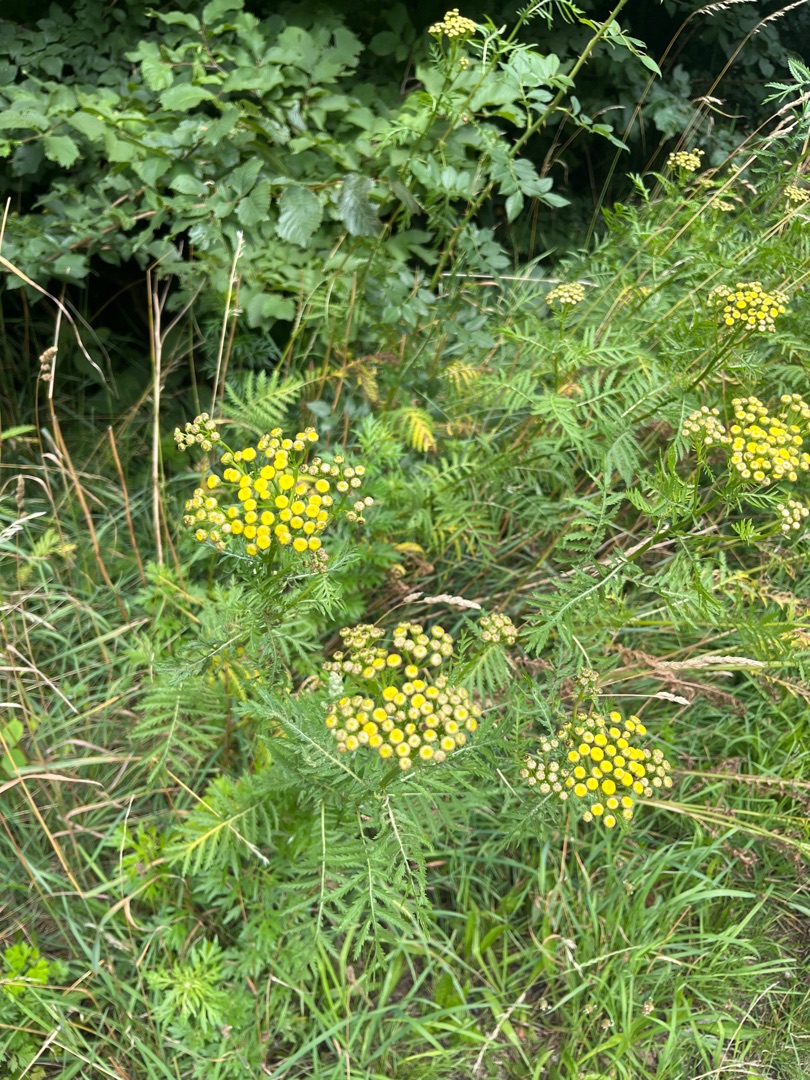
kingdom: Plantae
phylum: Tracheophyta
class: Magnoliopsida
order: Asterales
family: Asteraceae
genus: Tanacetum
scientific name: Tanacetum vulgare
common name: Rejnfan
